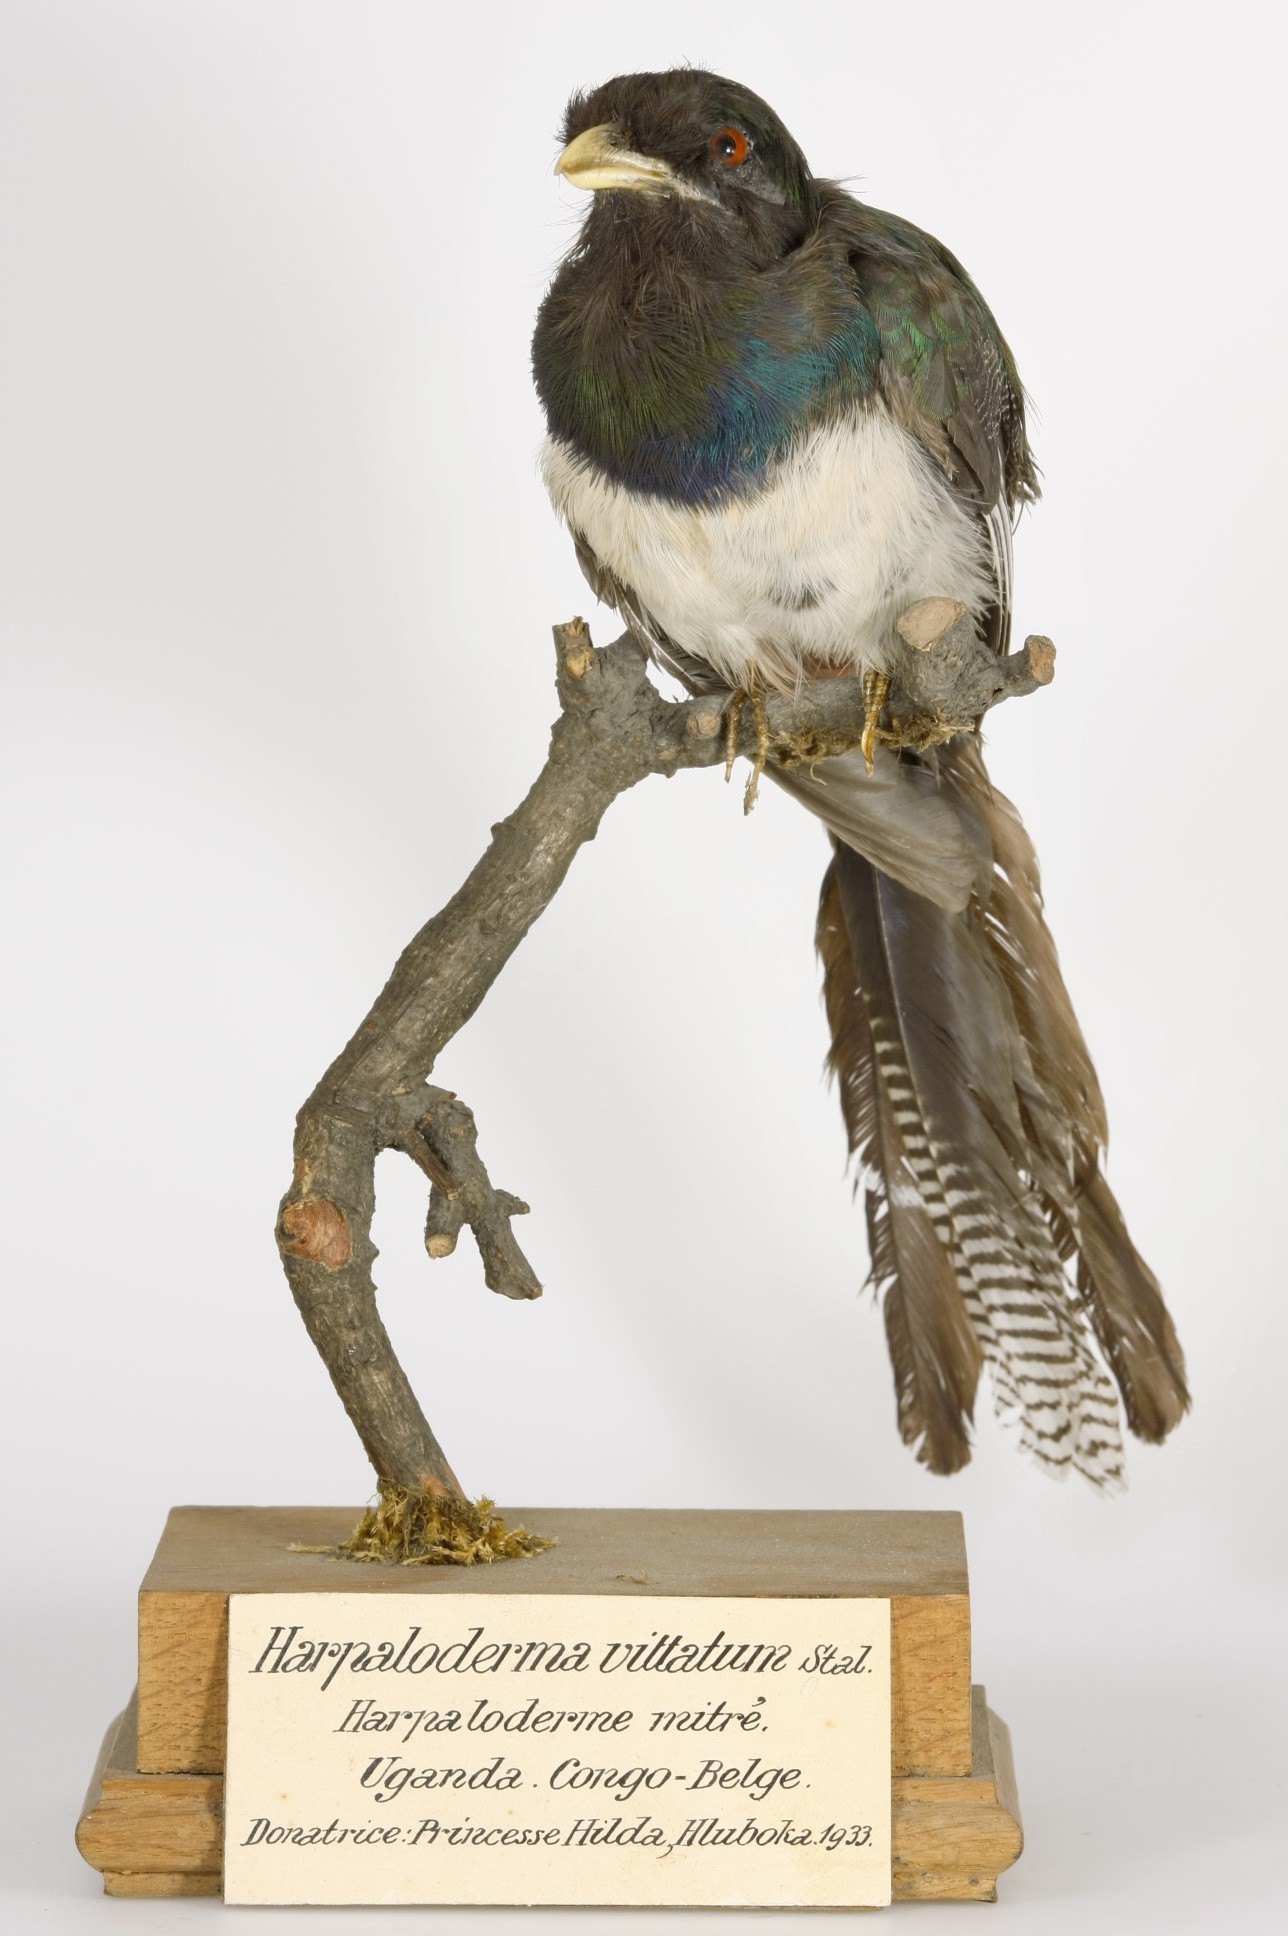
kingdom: Animalia
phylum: Chordata
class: Aves
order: Trogoniformes
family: Trogonidae
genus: Apaloderma
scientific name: Apaloderma vittatum
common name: Bar-tailed trogon
